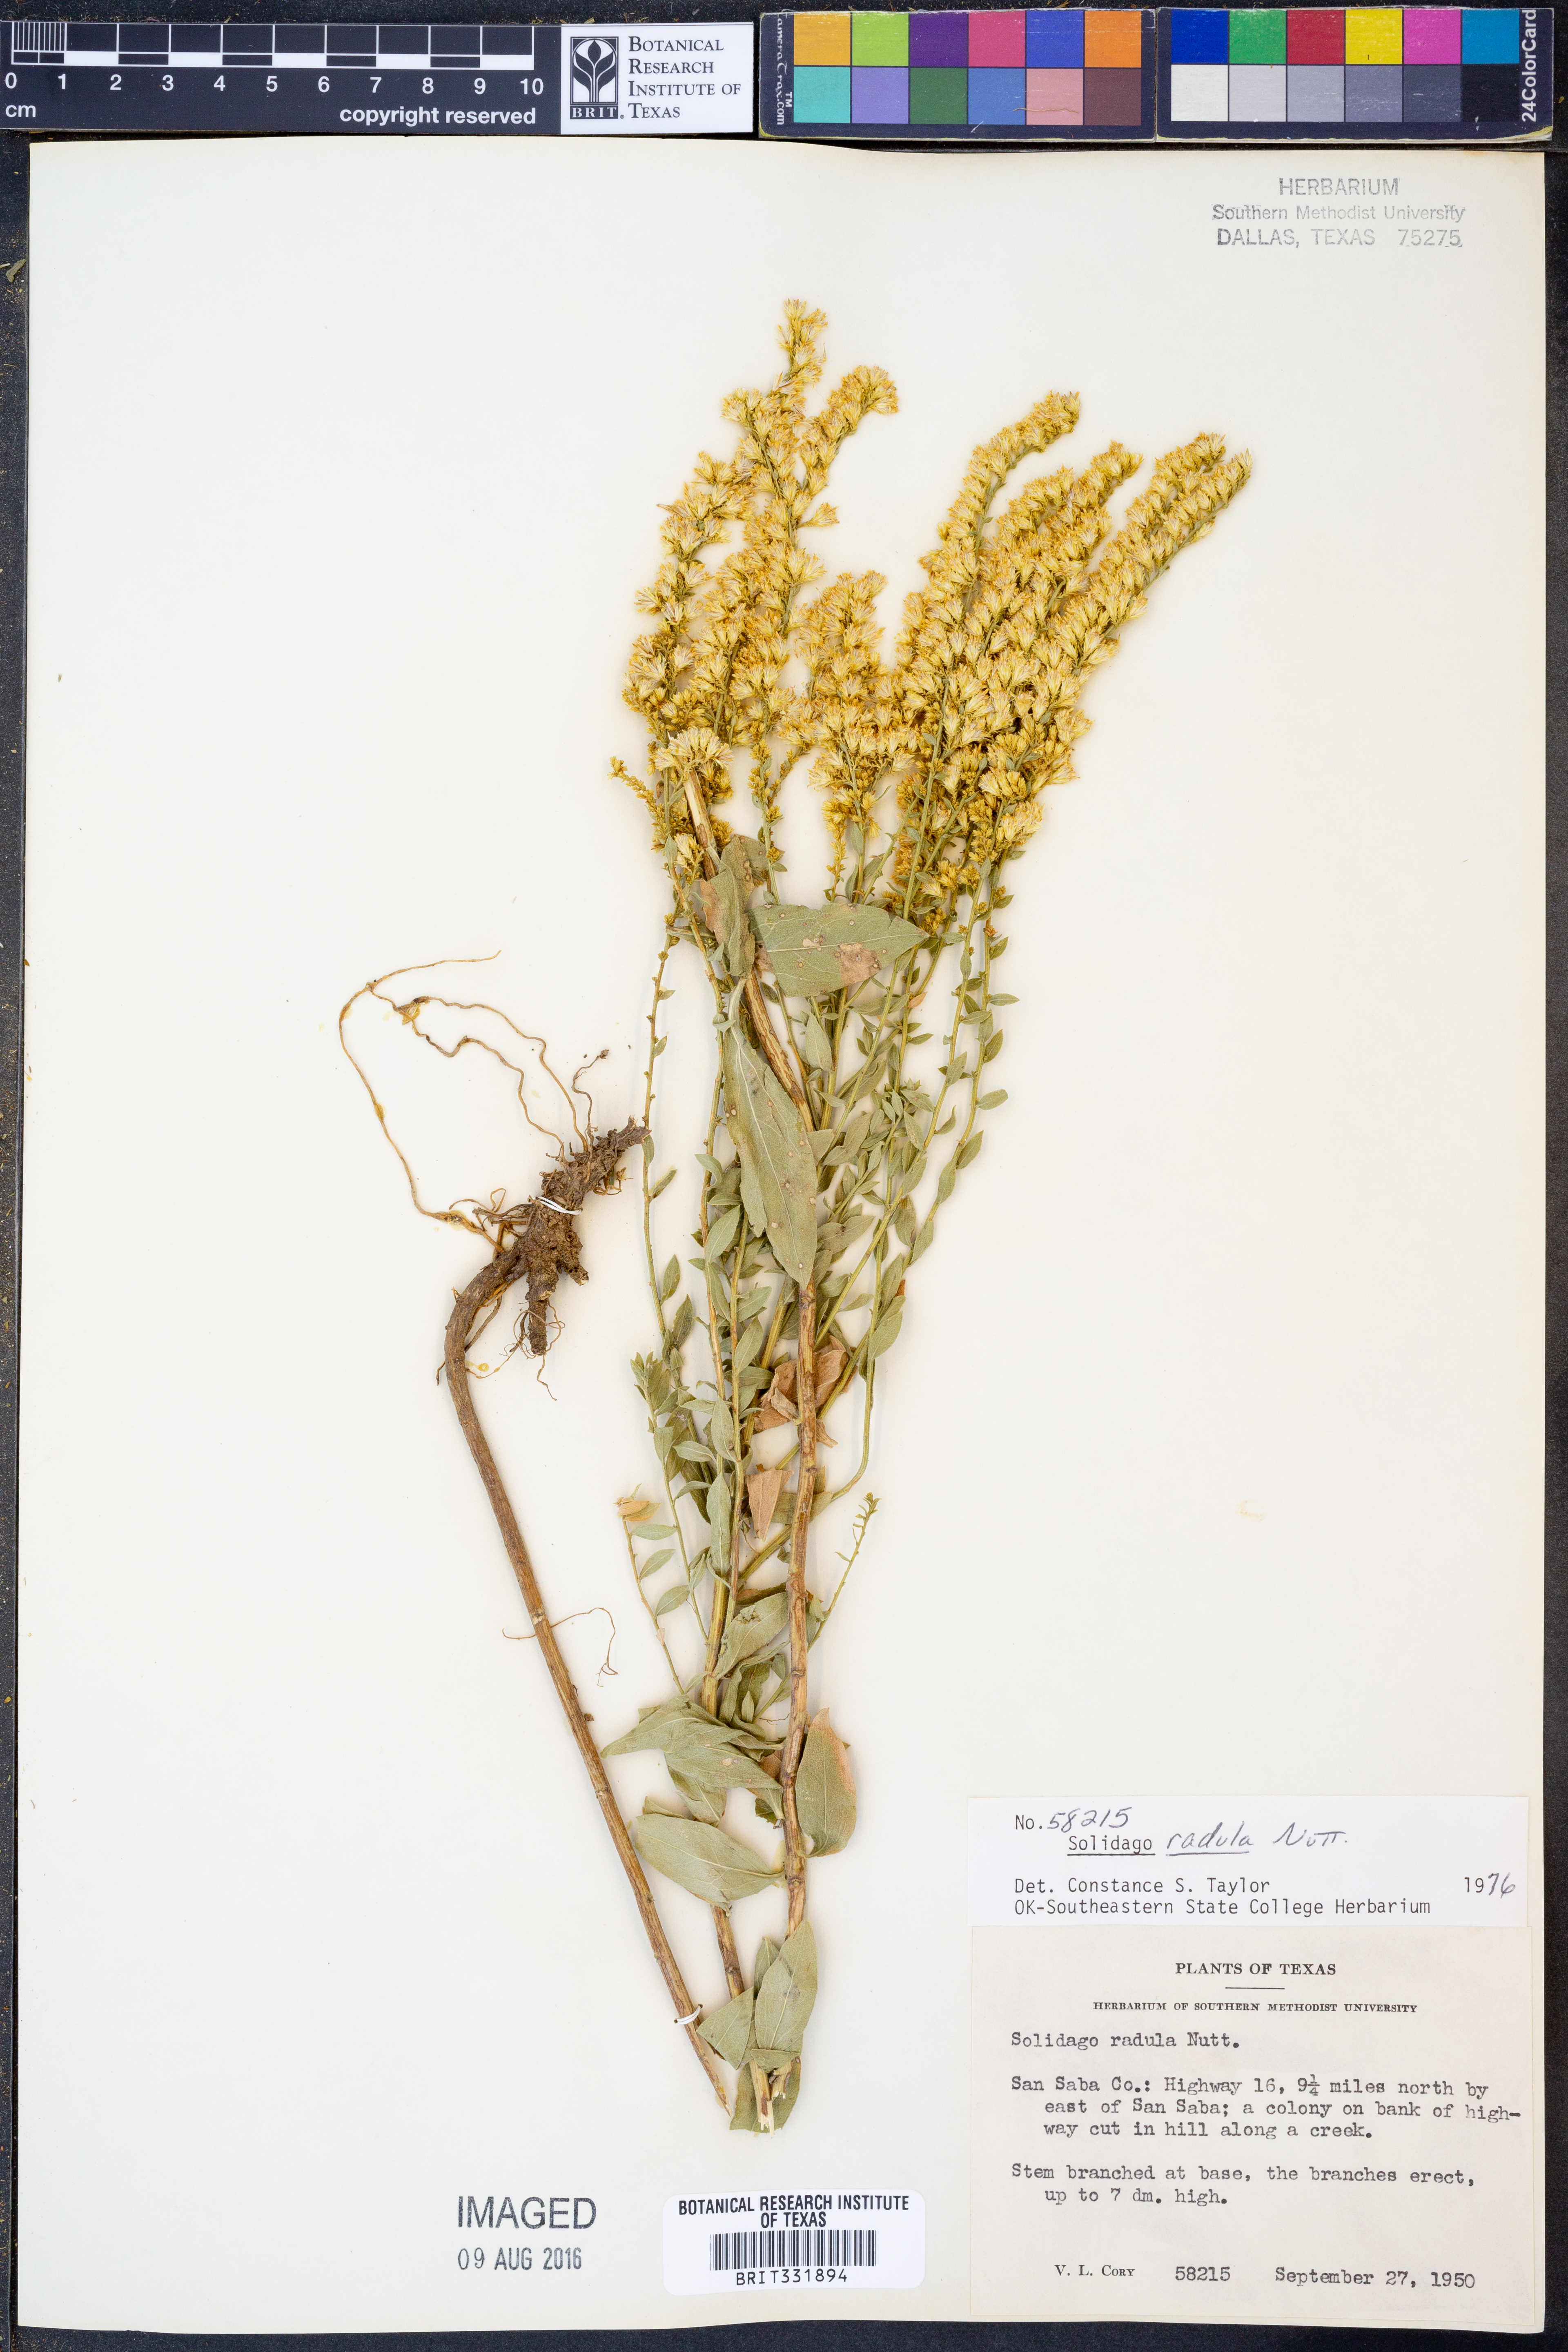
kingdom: Plantae
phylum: Tracheophyta
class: Magnoliopsida
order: Asterales
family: Asteraceae
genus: Solidago
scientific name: Solidago radula
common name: Western rough goldenrod
